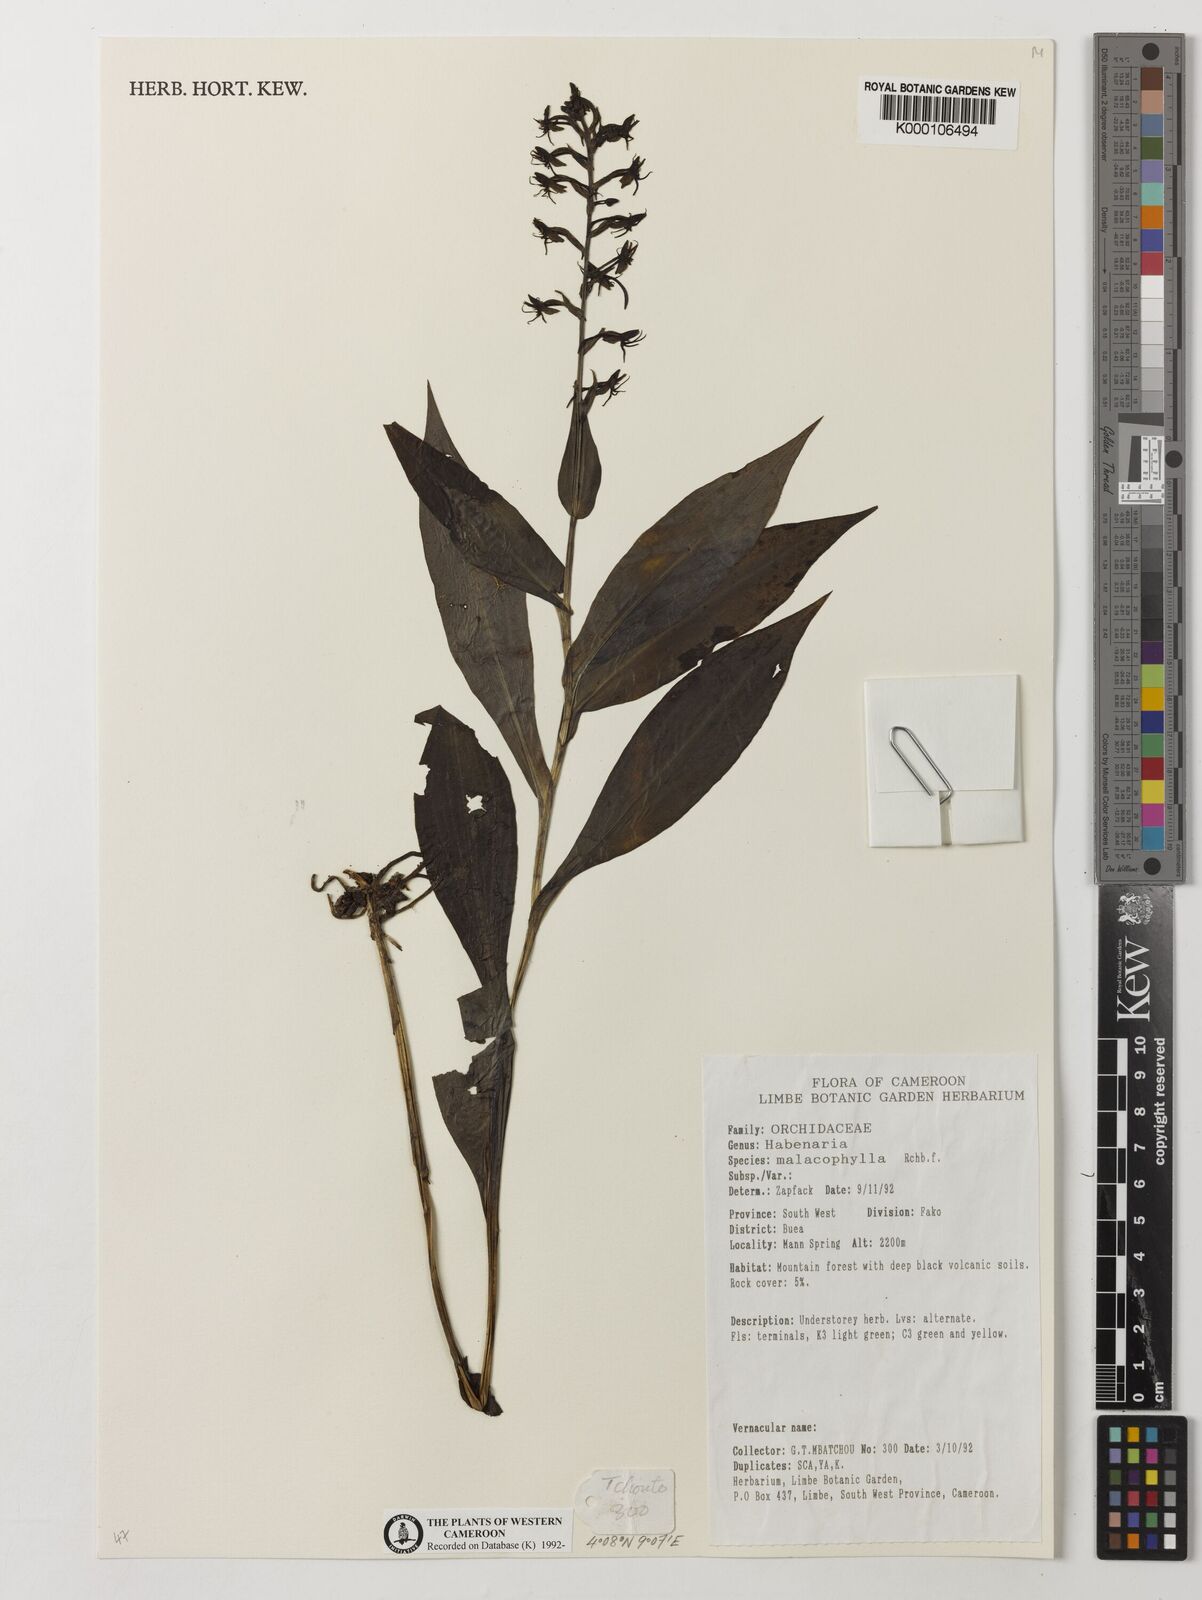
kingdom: Plantae
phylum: Tracheophyta
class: Liliopsida
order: Asparagales
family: Orchidaceae
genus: Habenaria
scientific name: Habenaria malacophylla
